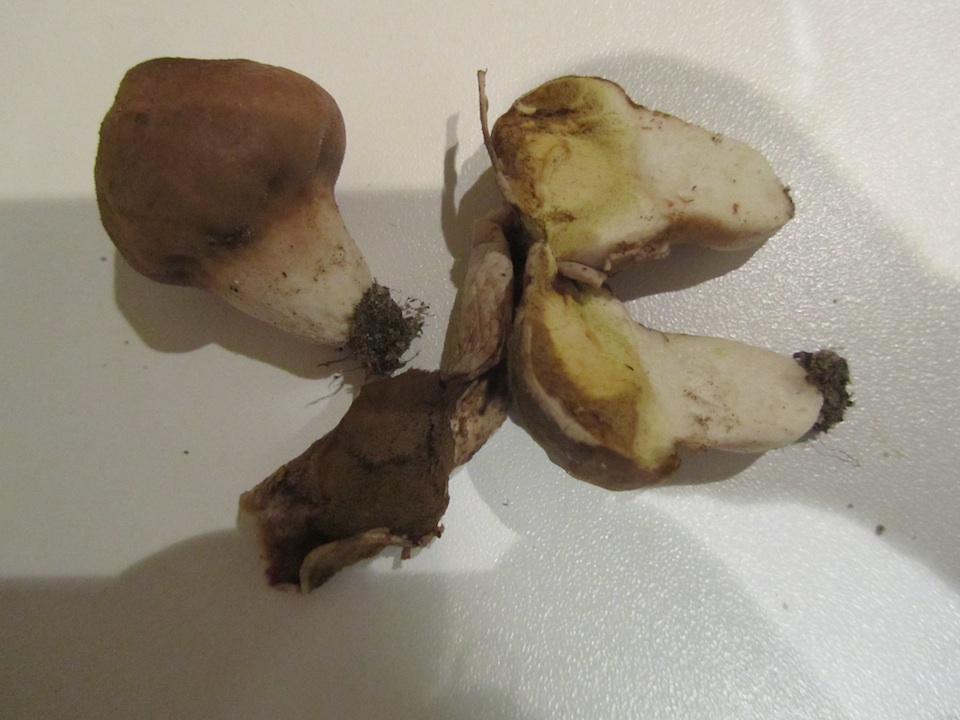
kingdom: Fungi
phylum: Basidiomycota
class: Agaricomycetes
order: Agaricales
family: Lycoperdaceae
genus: Lycoperdon
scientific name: Lycoperdon lividum
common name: mark-støvbold
